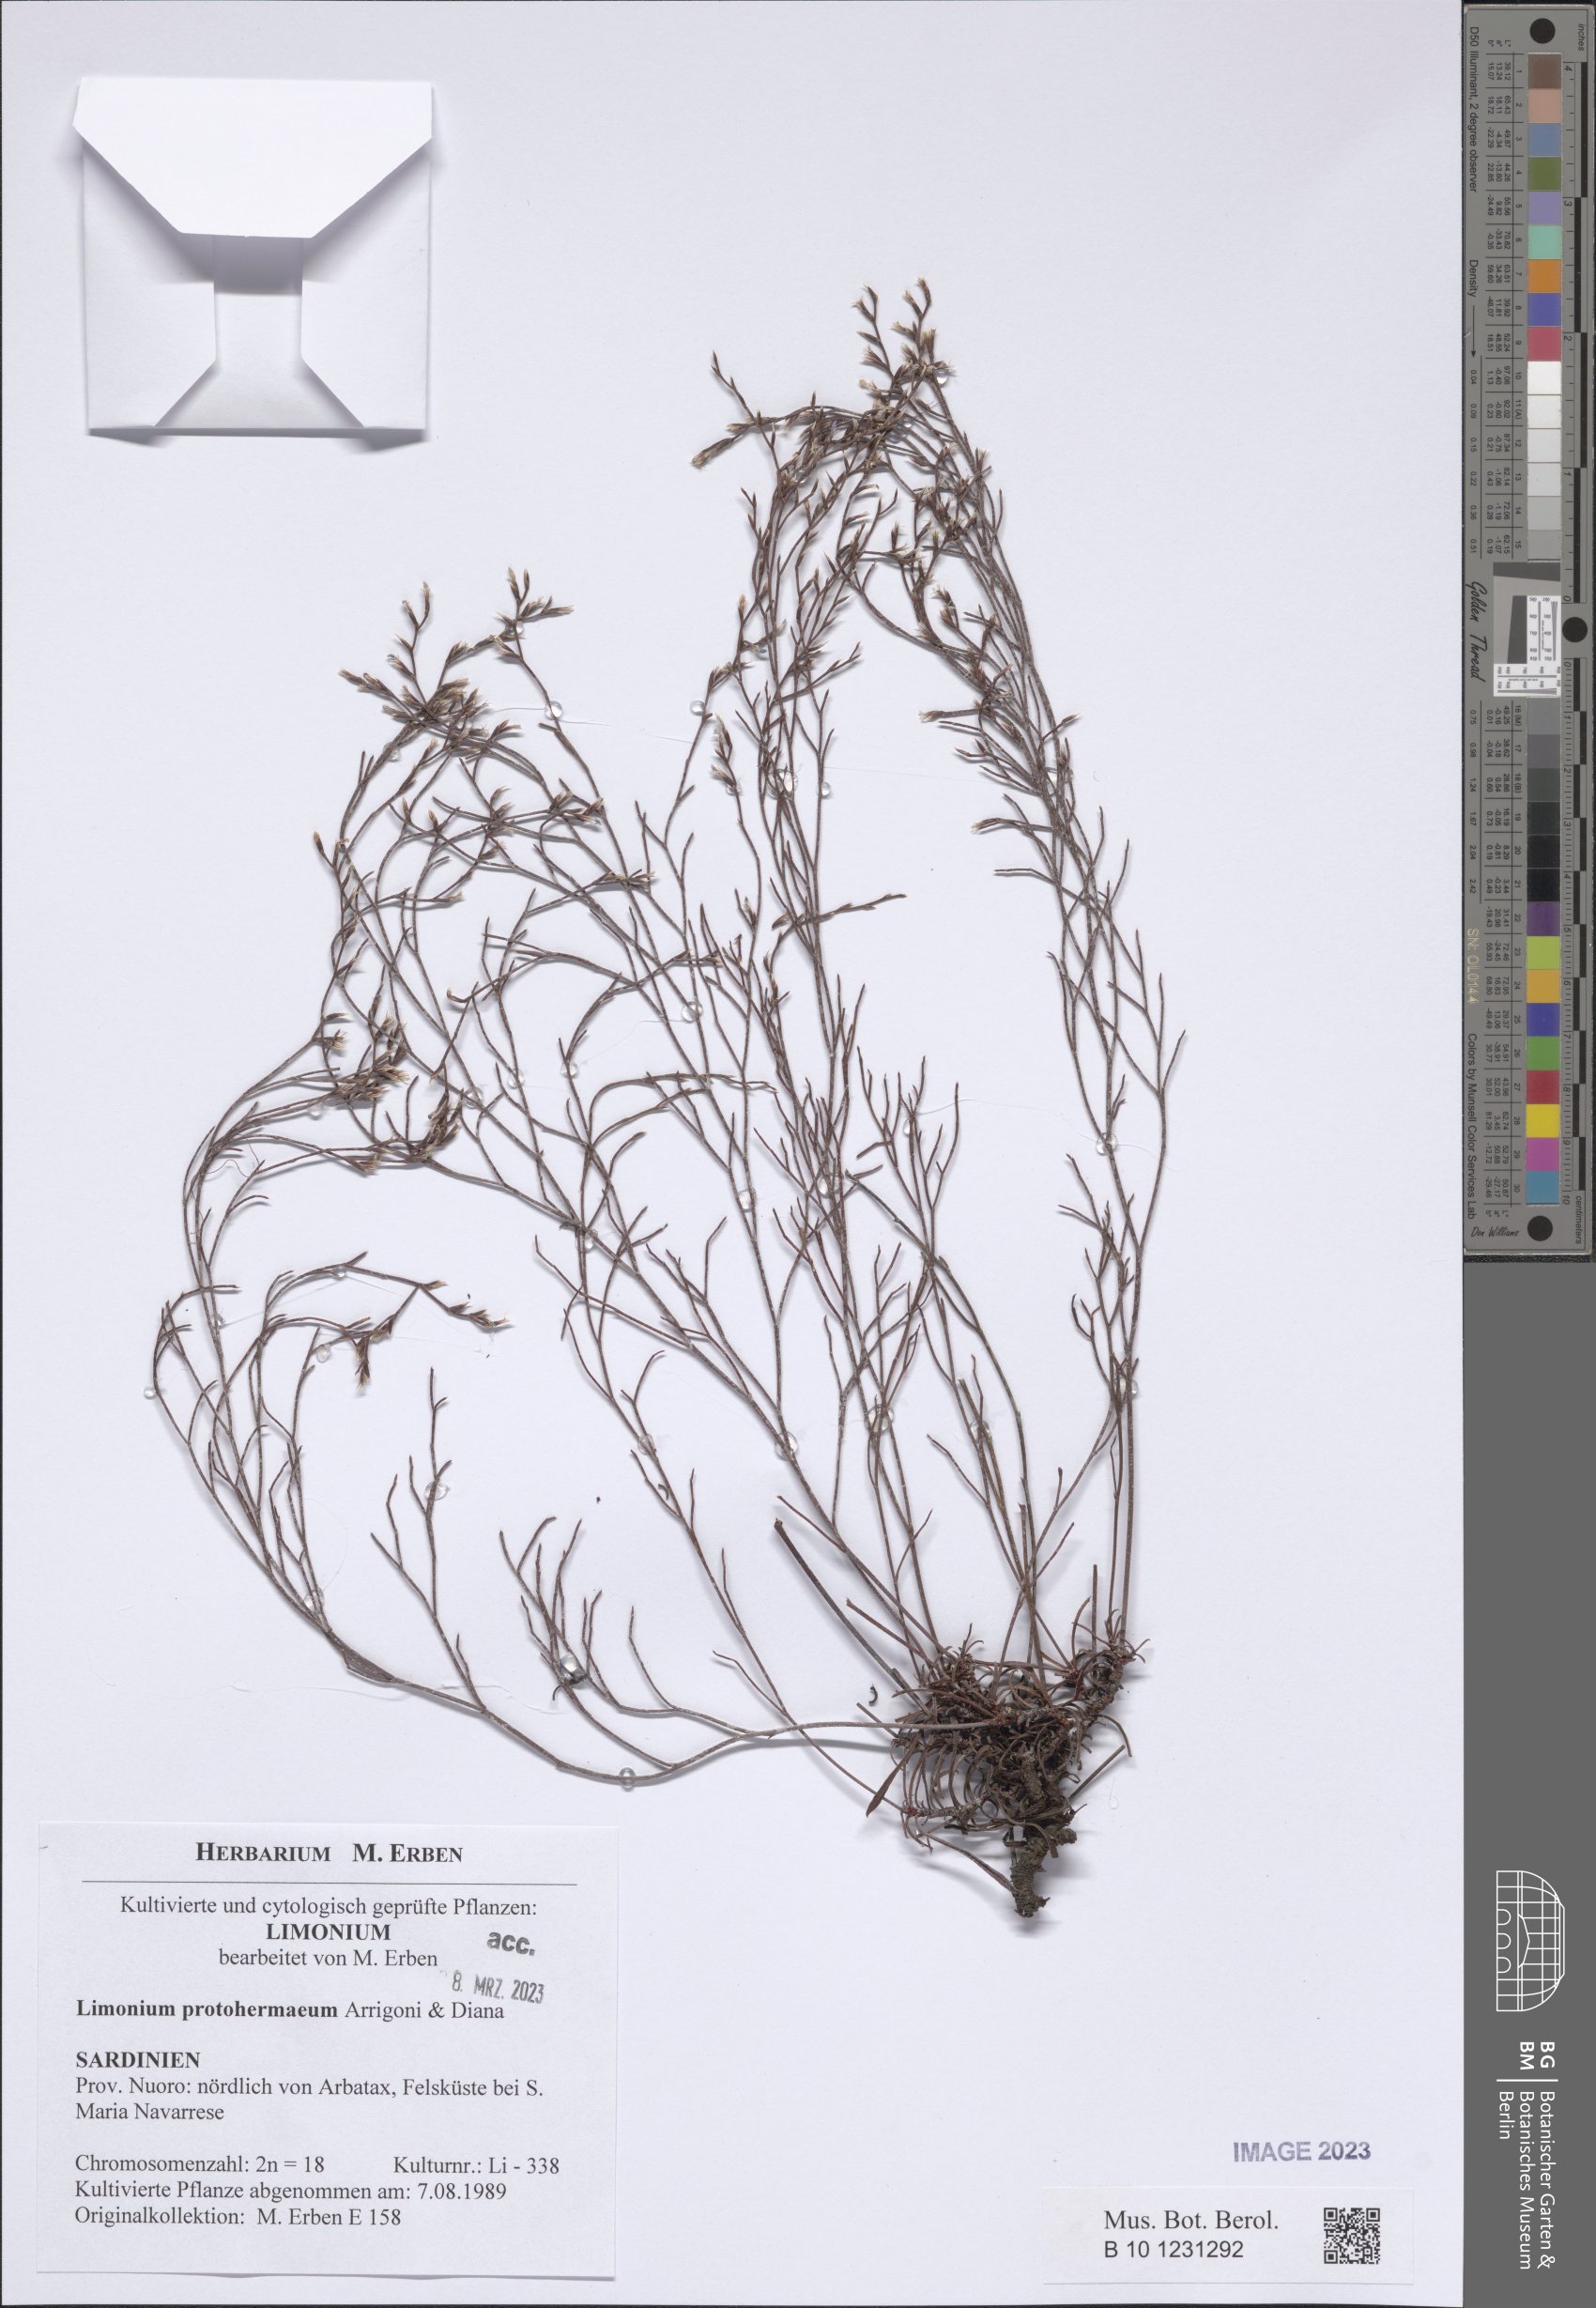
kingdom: Plantae
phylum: Tracheophyta
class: Magnoliopsida
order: Caryophyllales
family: Plumbaginaceae
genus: Limonium
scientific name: Limonium protohermaeum
